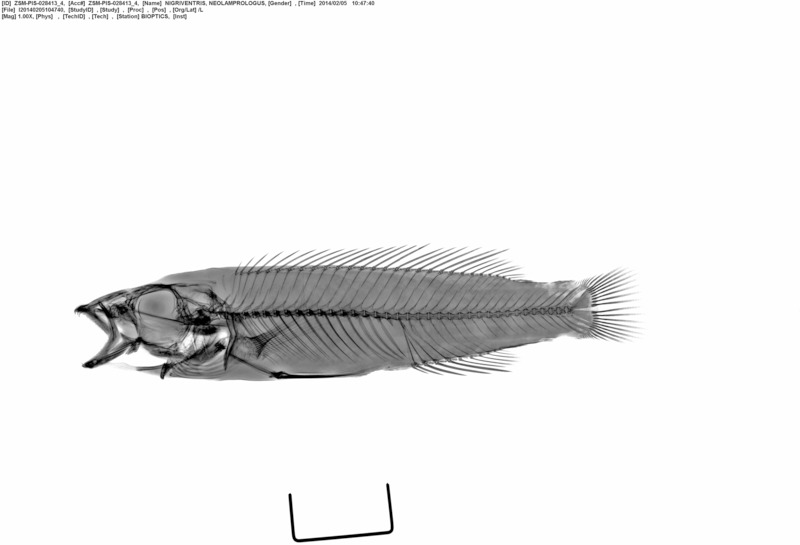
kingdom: Animalia
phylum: Chordata
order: Perciformes
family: Cichlidae
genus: Neolamprologus
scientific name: Neolamprologus nigriventris
